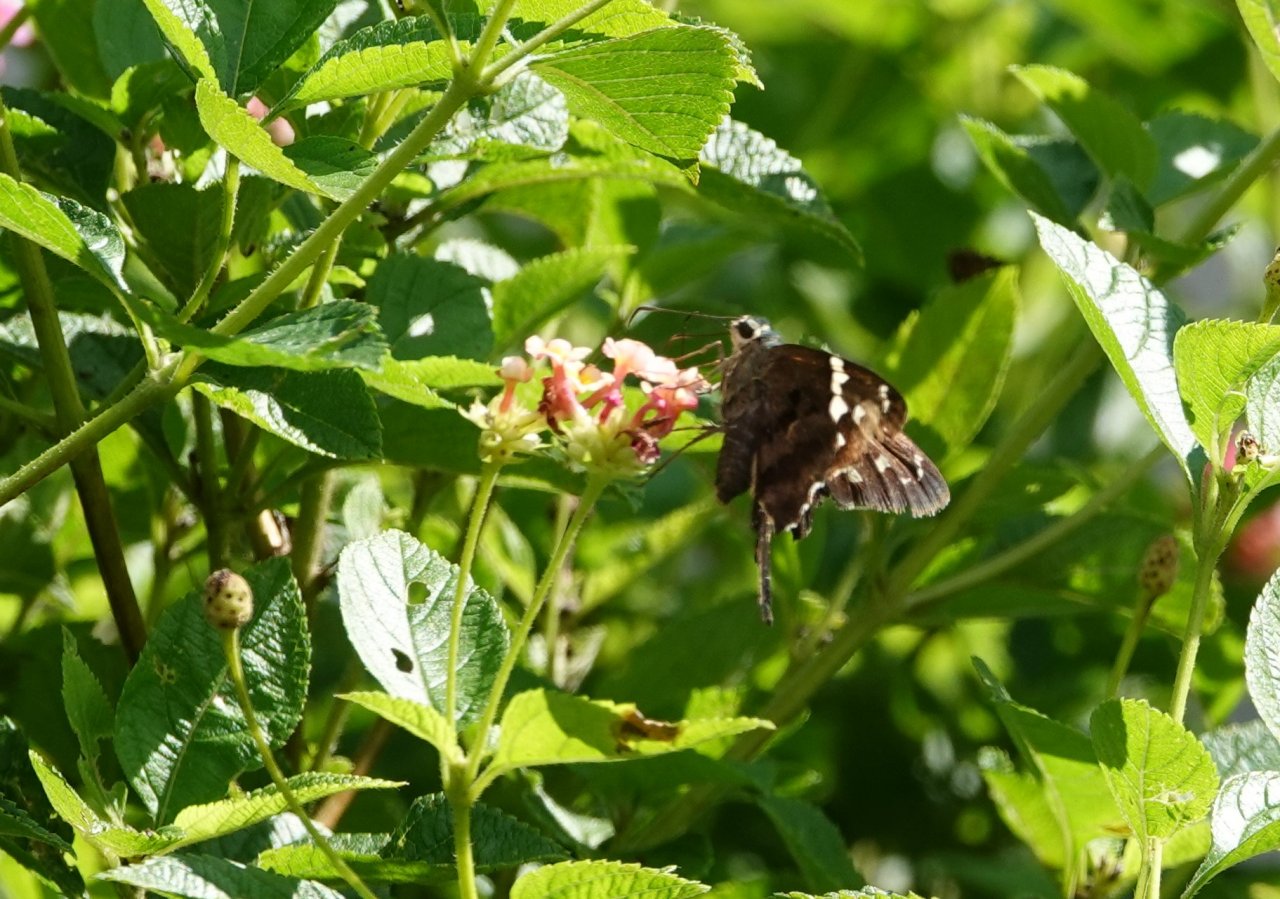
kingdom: Animalia
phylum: Arthropoda
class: Insecta
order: Lepidoptera
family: Hesperiidae
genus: Urbanus
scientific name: Urbanus proteus
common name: Long-tailed Skipper
